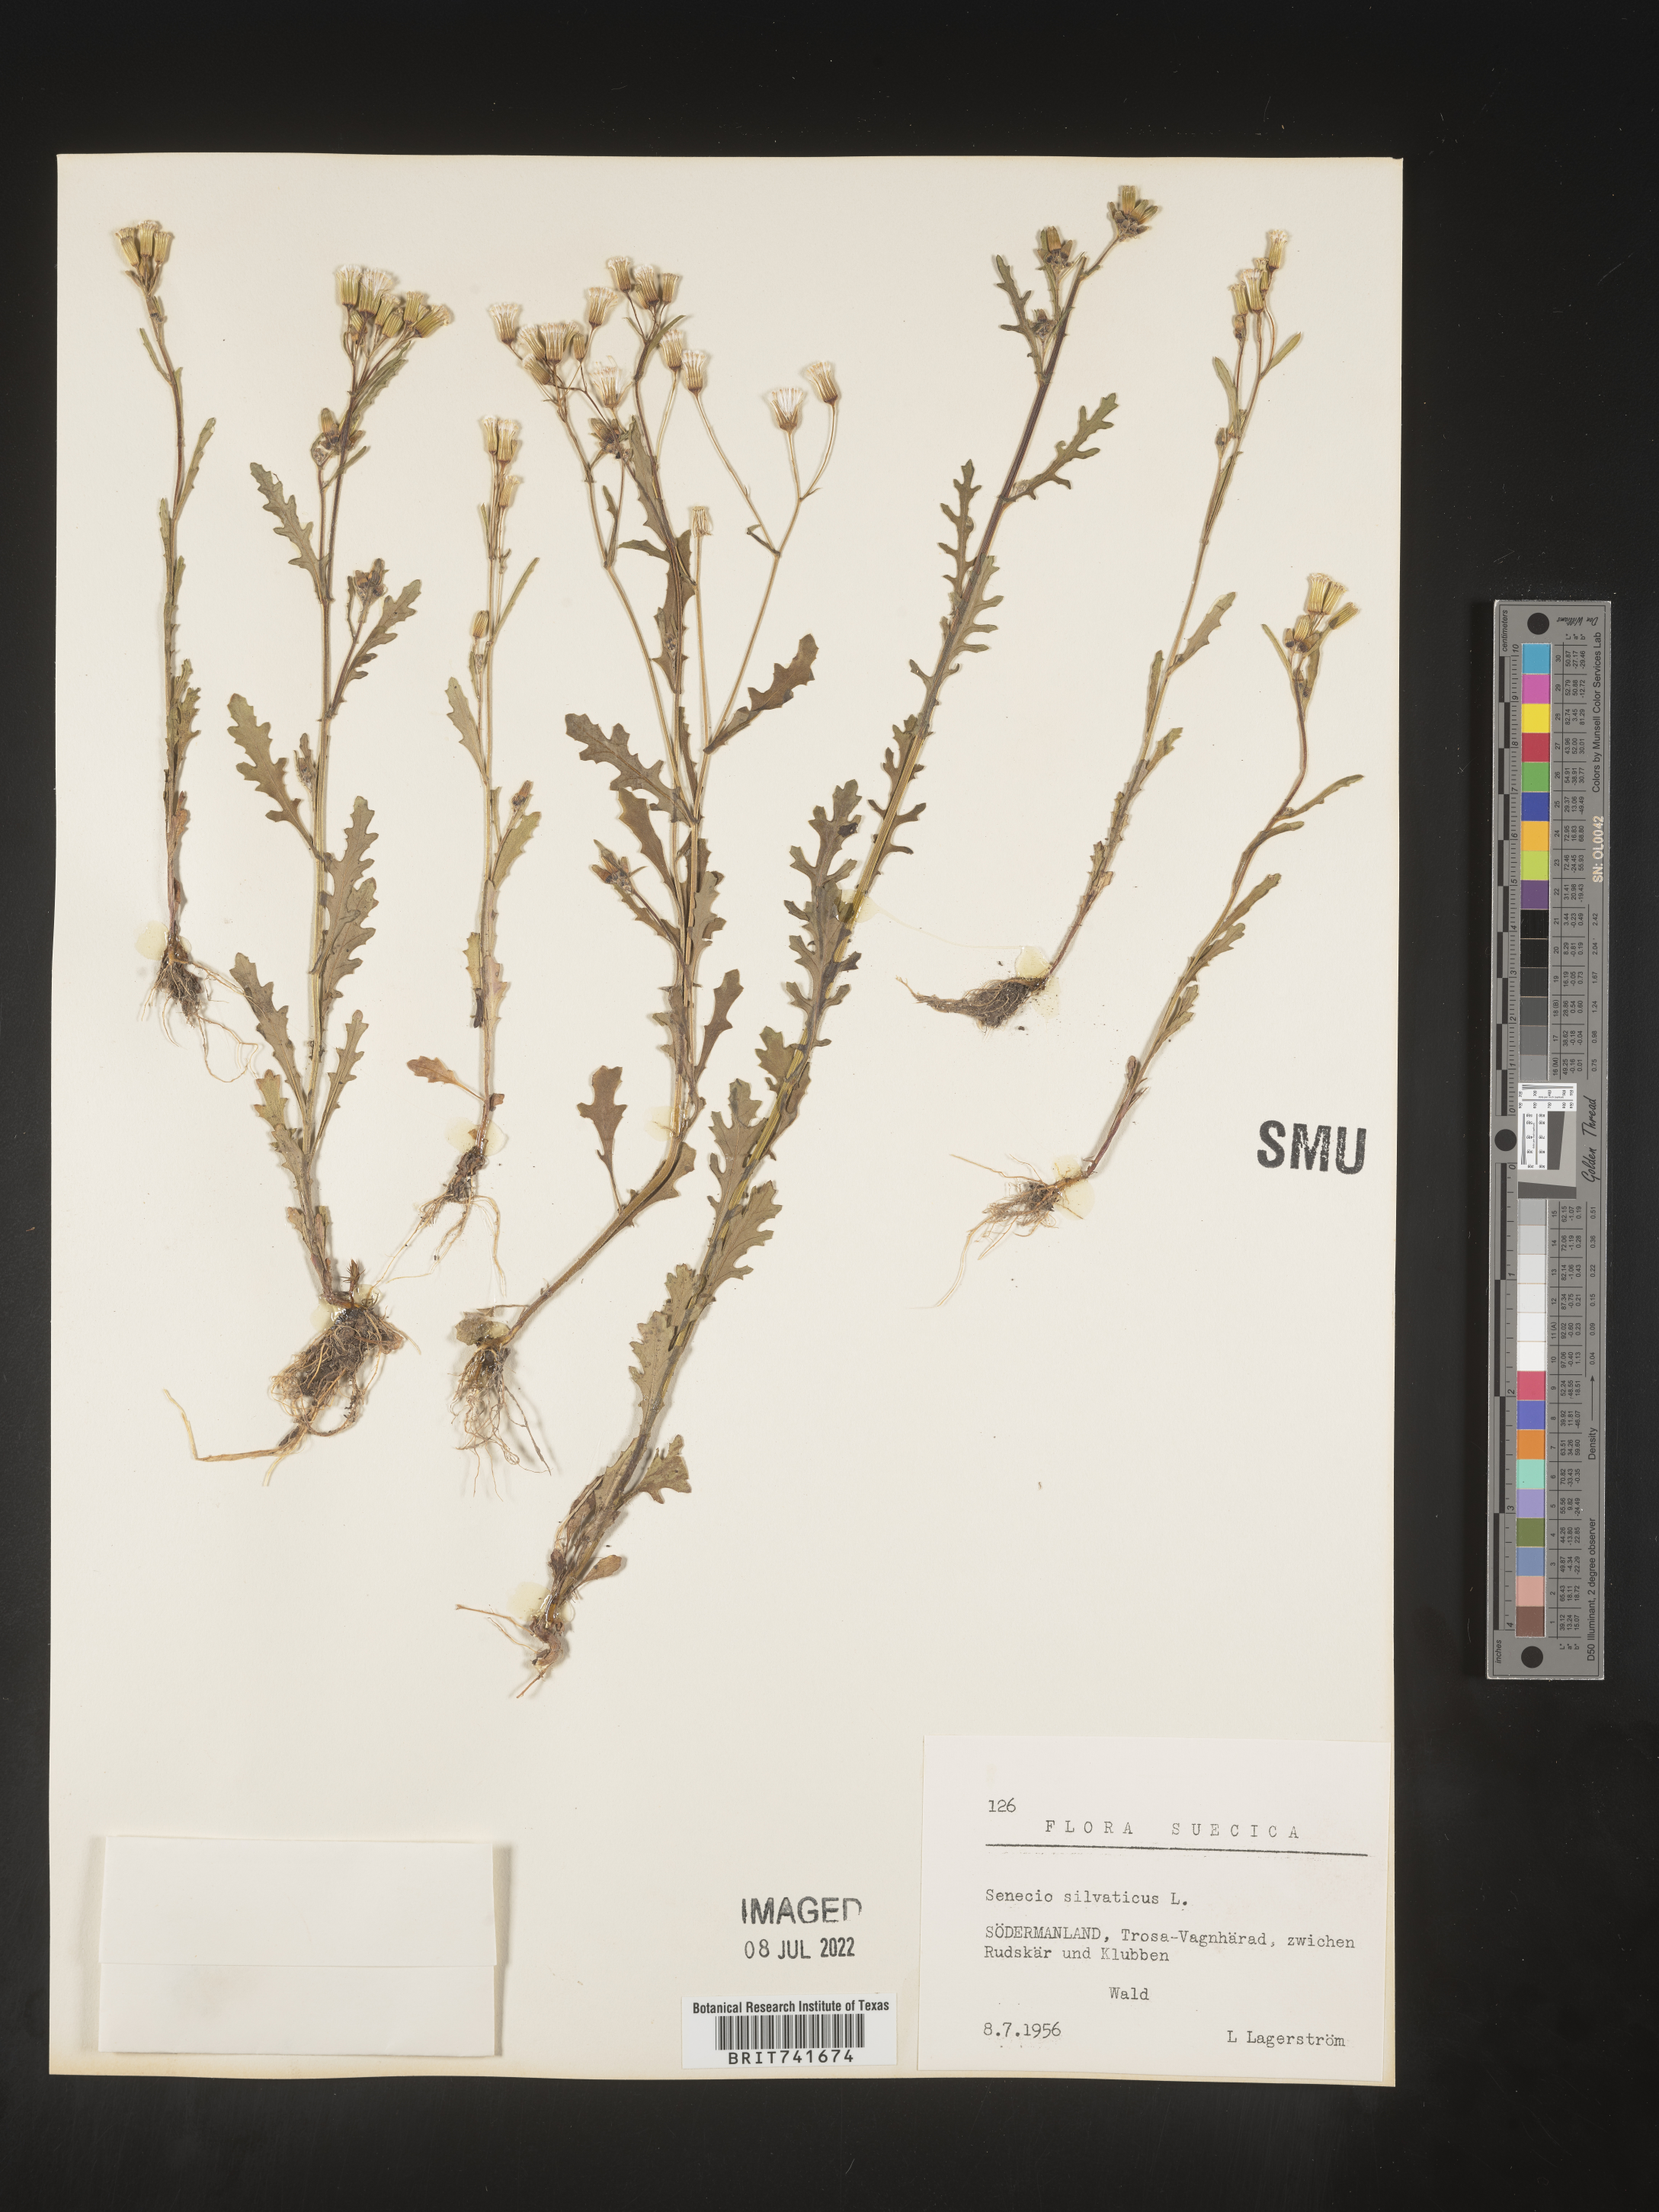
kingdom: Plantae
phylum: Tracheophyta
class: Magnoliopsida
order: Asterales
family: Asteraceae
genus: Senecio
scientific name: Senecio
